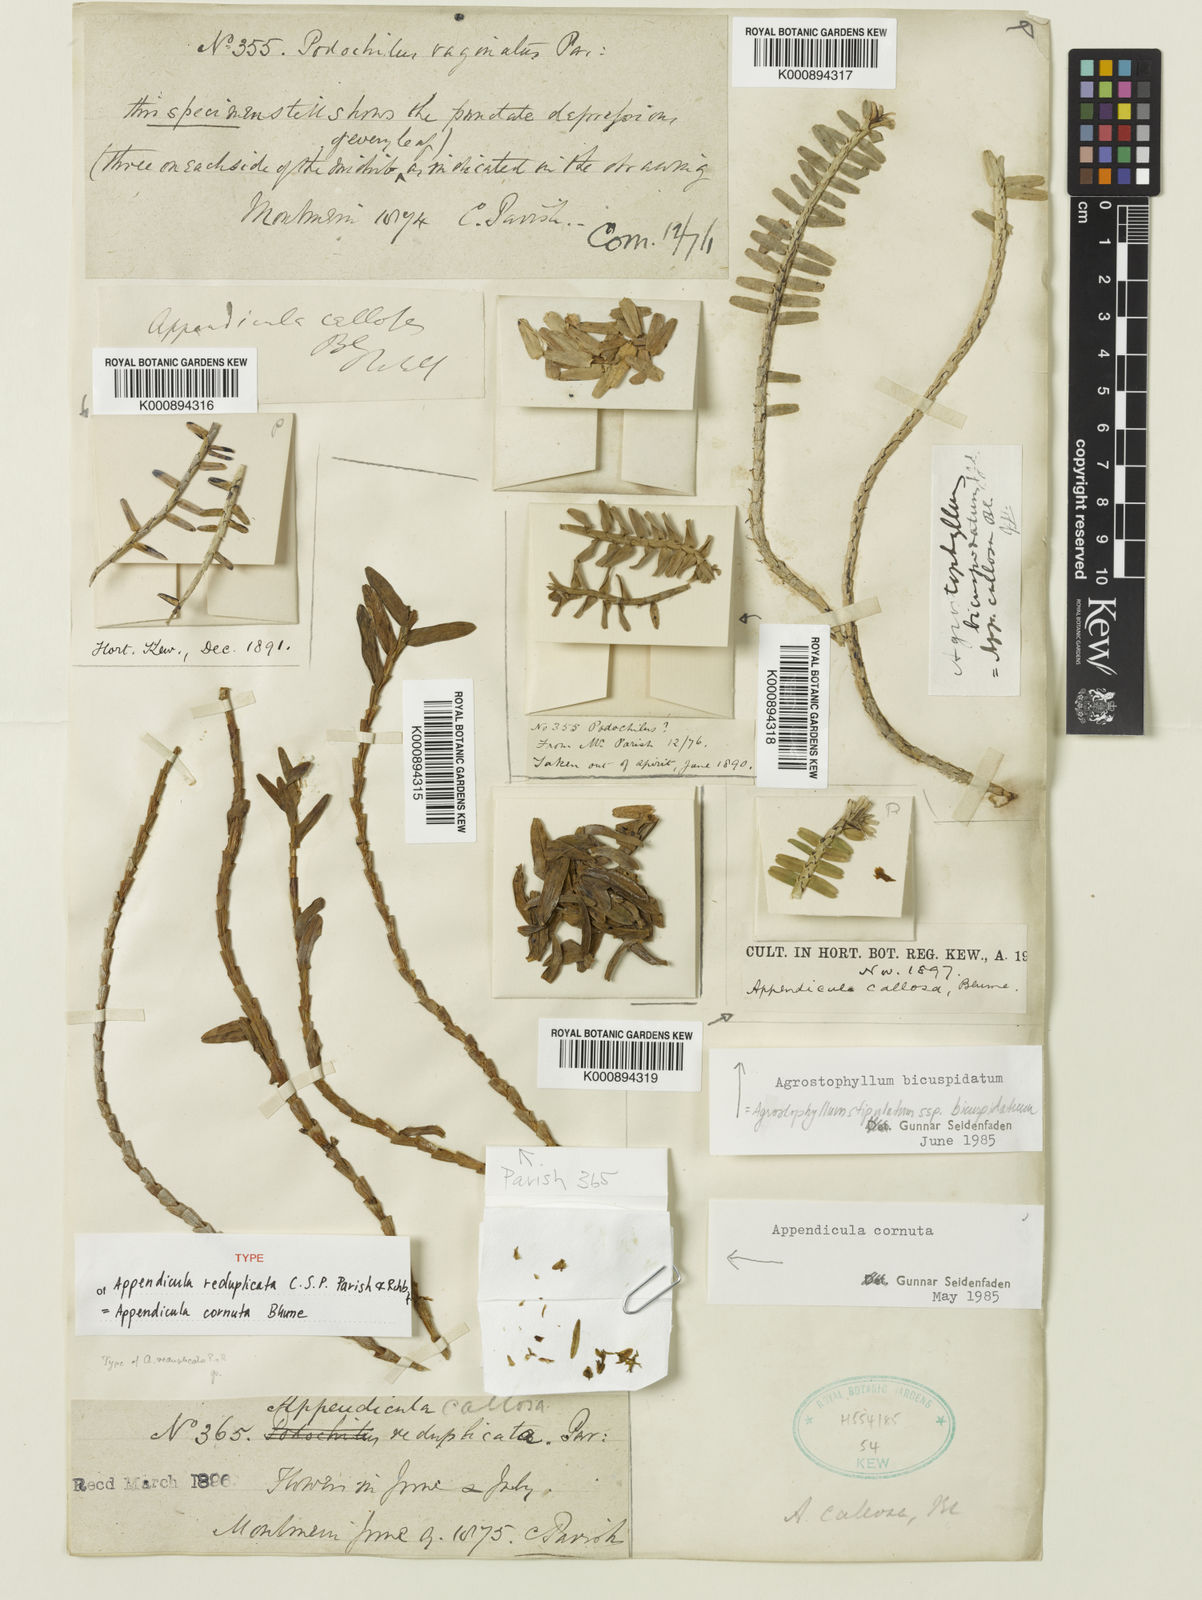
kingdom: Plantae
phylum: Tracheophyta
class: Liliopsida
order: Asparagales
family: Orchidaceae
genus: Appendicula
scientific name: Appendicula cornuta
